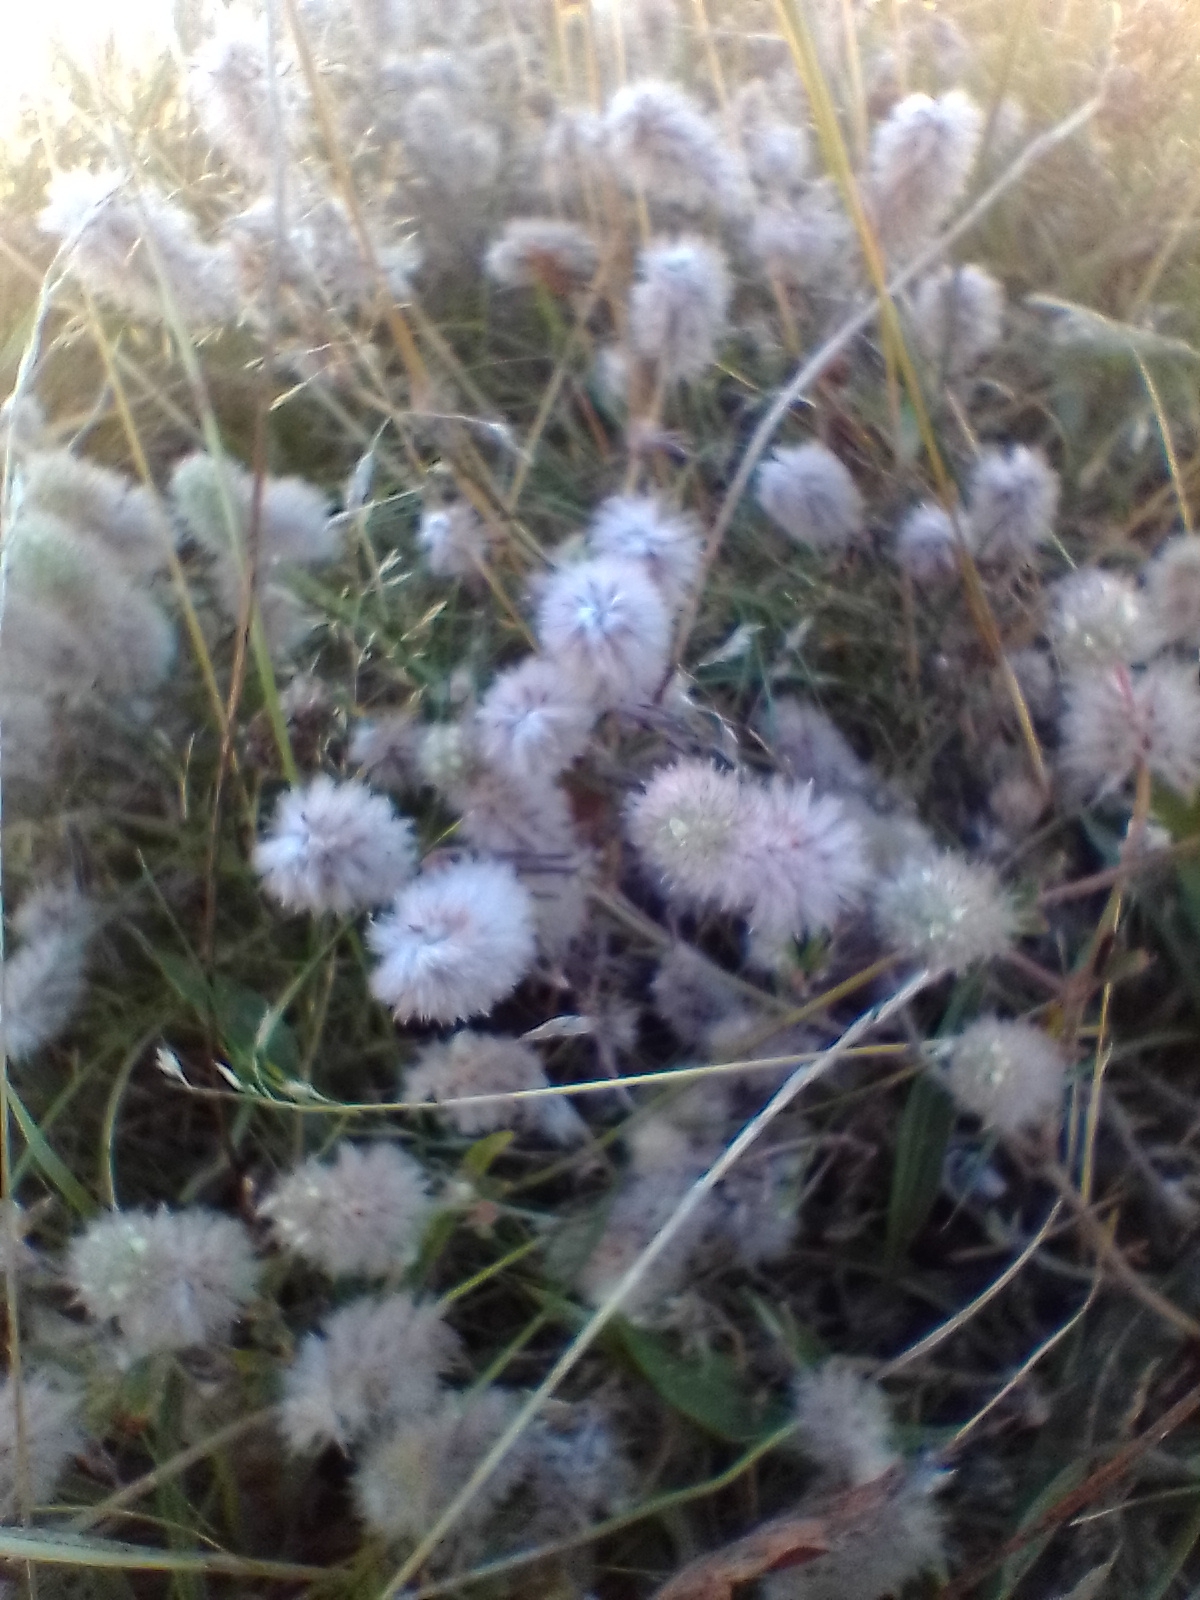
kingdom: Plantae
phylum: Tracheophyta
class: Magnoliopsida
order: Fabales
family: Fabaceae
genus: Trifolium
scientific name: Trifolium arvense
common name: Hare-kløver
